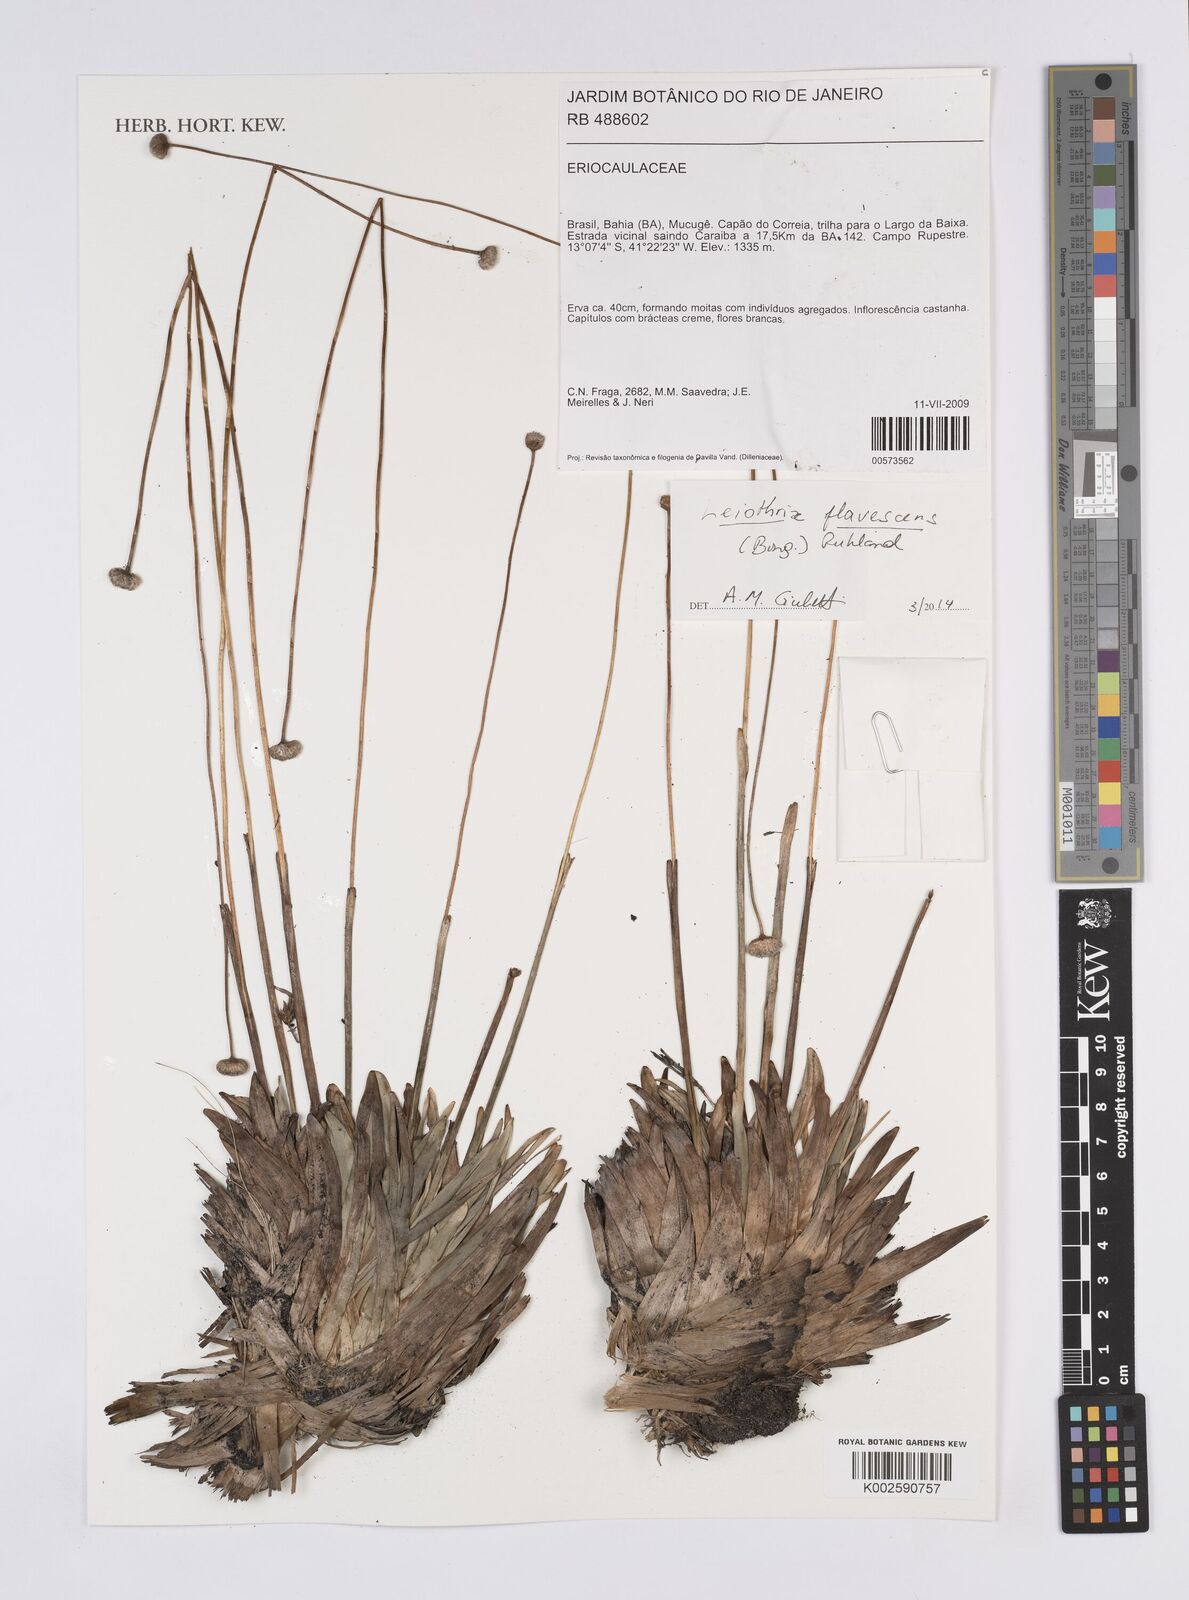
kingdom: Plantae
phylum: Tracheophyta
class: Liliopsida
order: Poales
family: Eriocaulaceae
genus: Leiothrix
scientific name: Leiothrix flavescens
